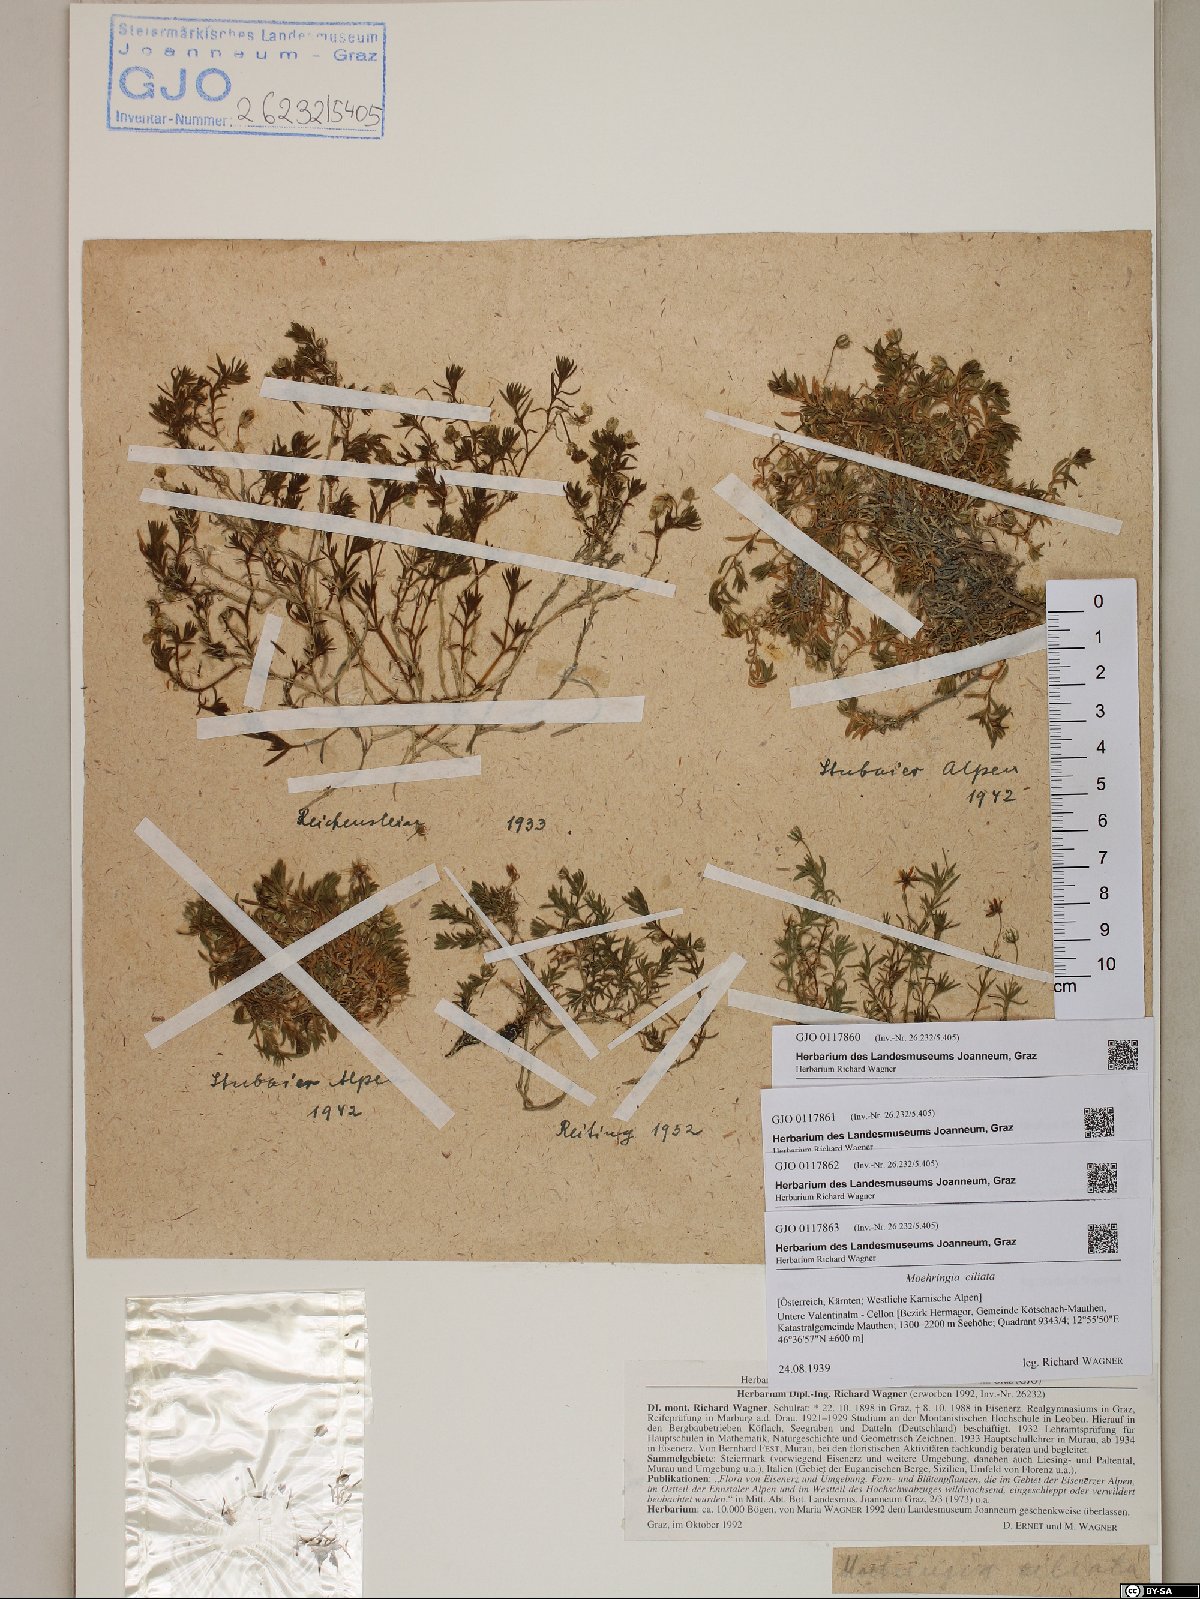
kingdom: Plantae
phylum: Tracheophyta
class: Magnoliopsida
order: Caryophyllales
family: Caryophyllaceae
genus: Moehringia
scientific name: Moehringia ciliata
